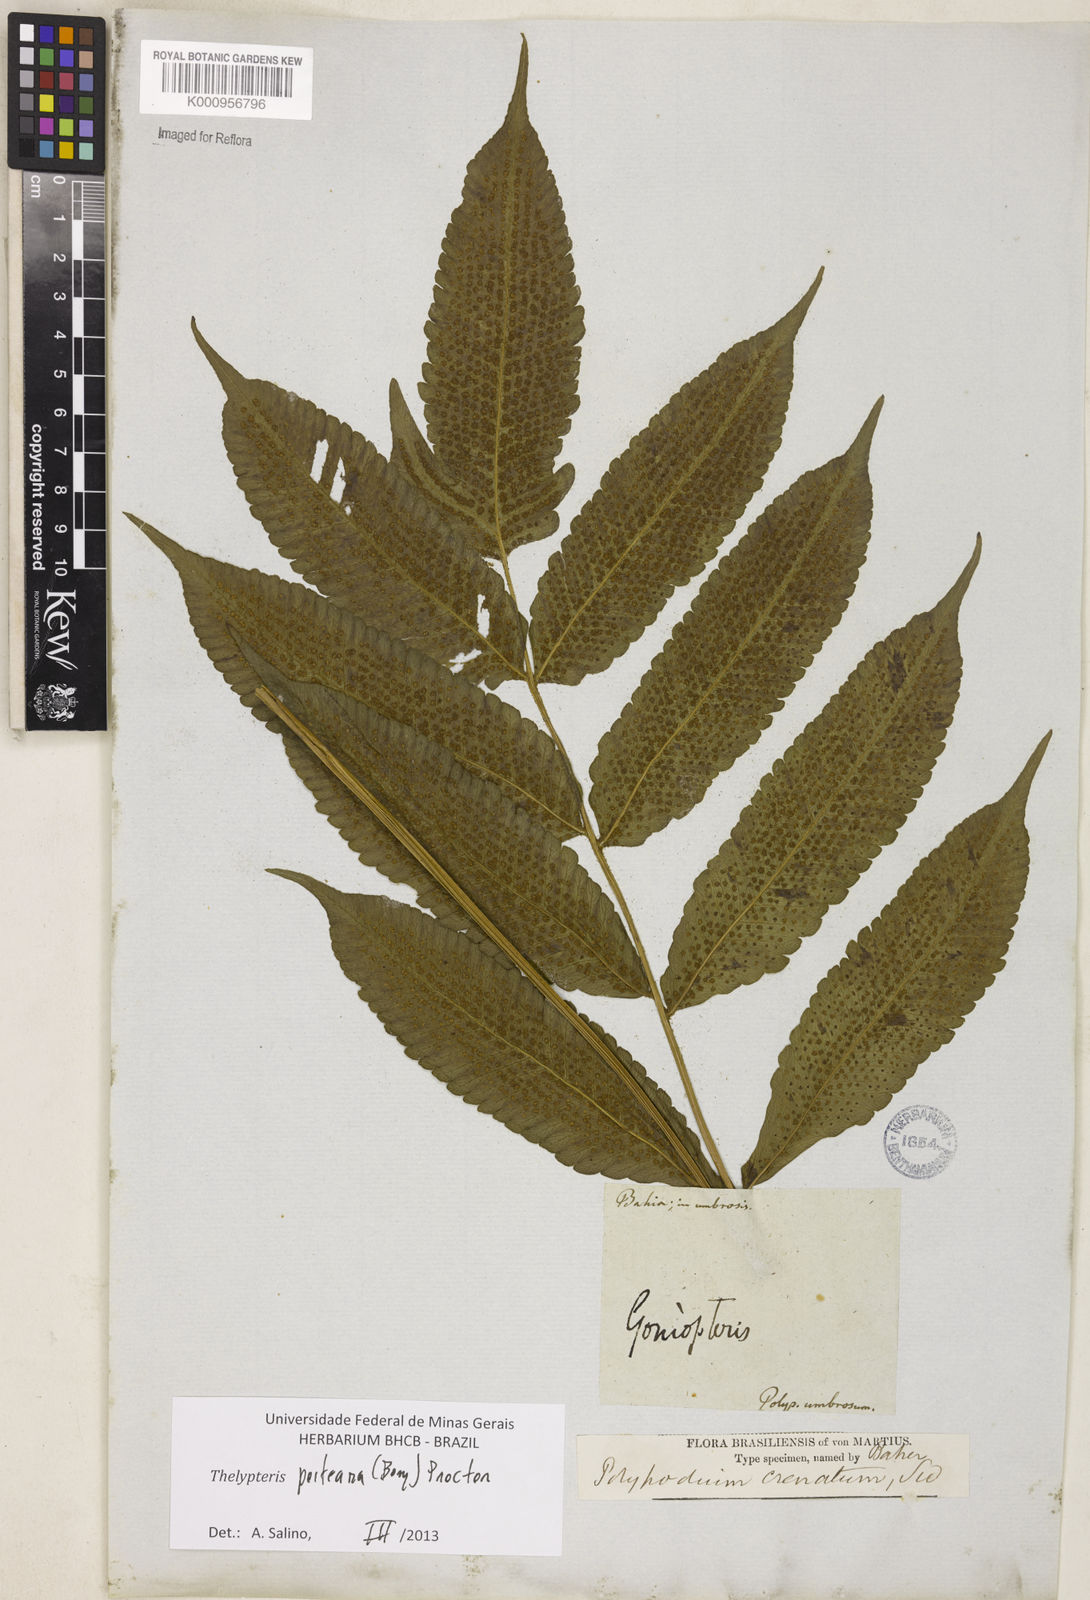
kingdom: Plantae
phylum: Tracheophyta
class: Polypodiopsida
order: Polypodiales
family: Thelypteridaceae
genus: Goniopteris
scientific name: Goniopteris poiteana
